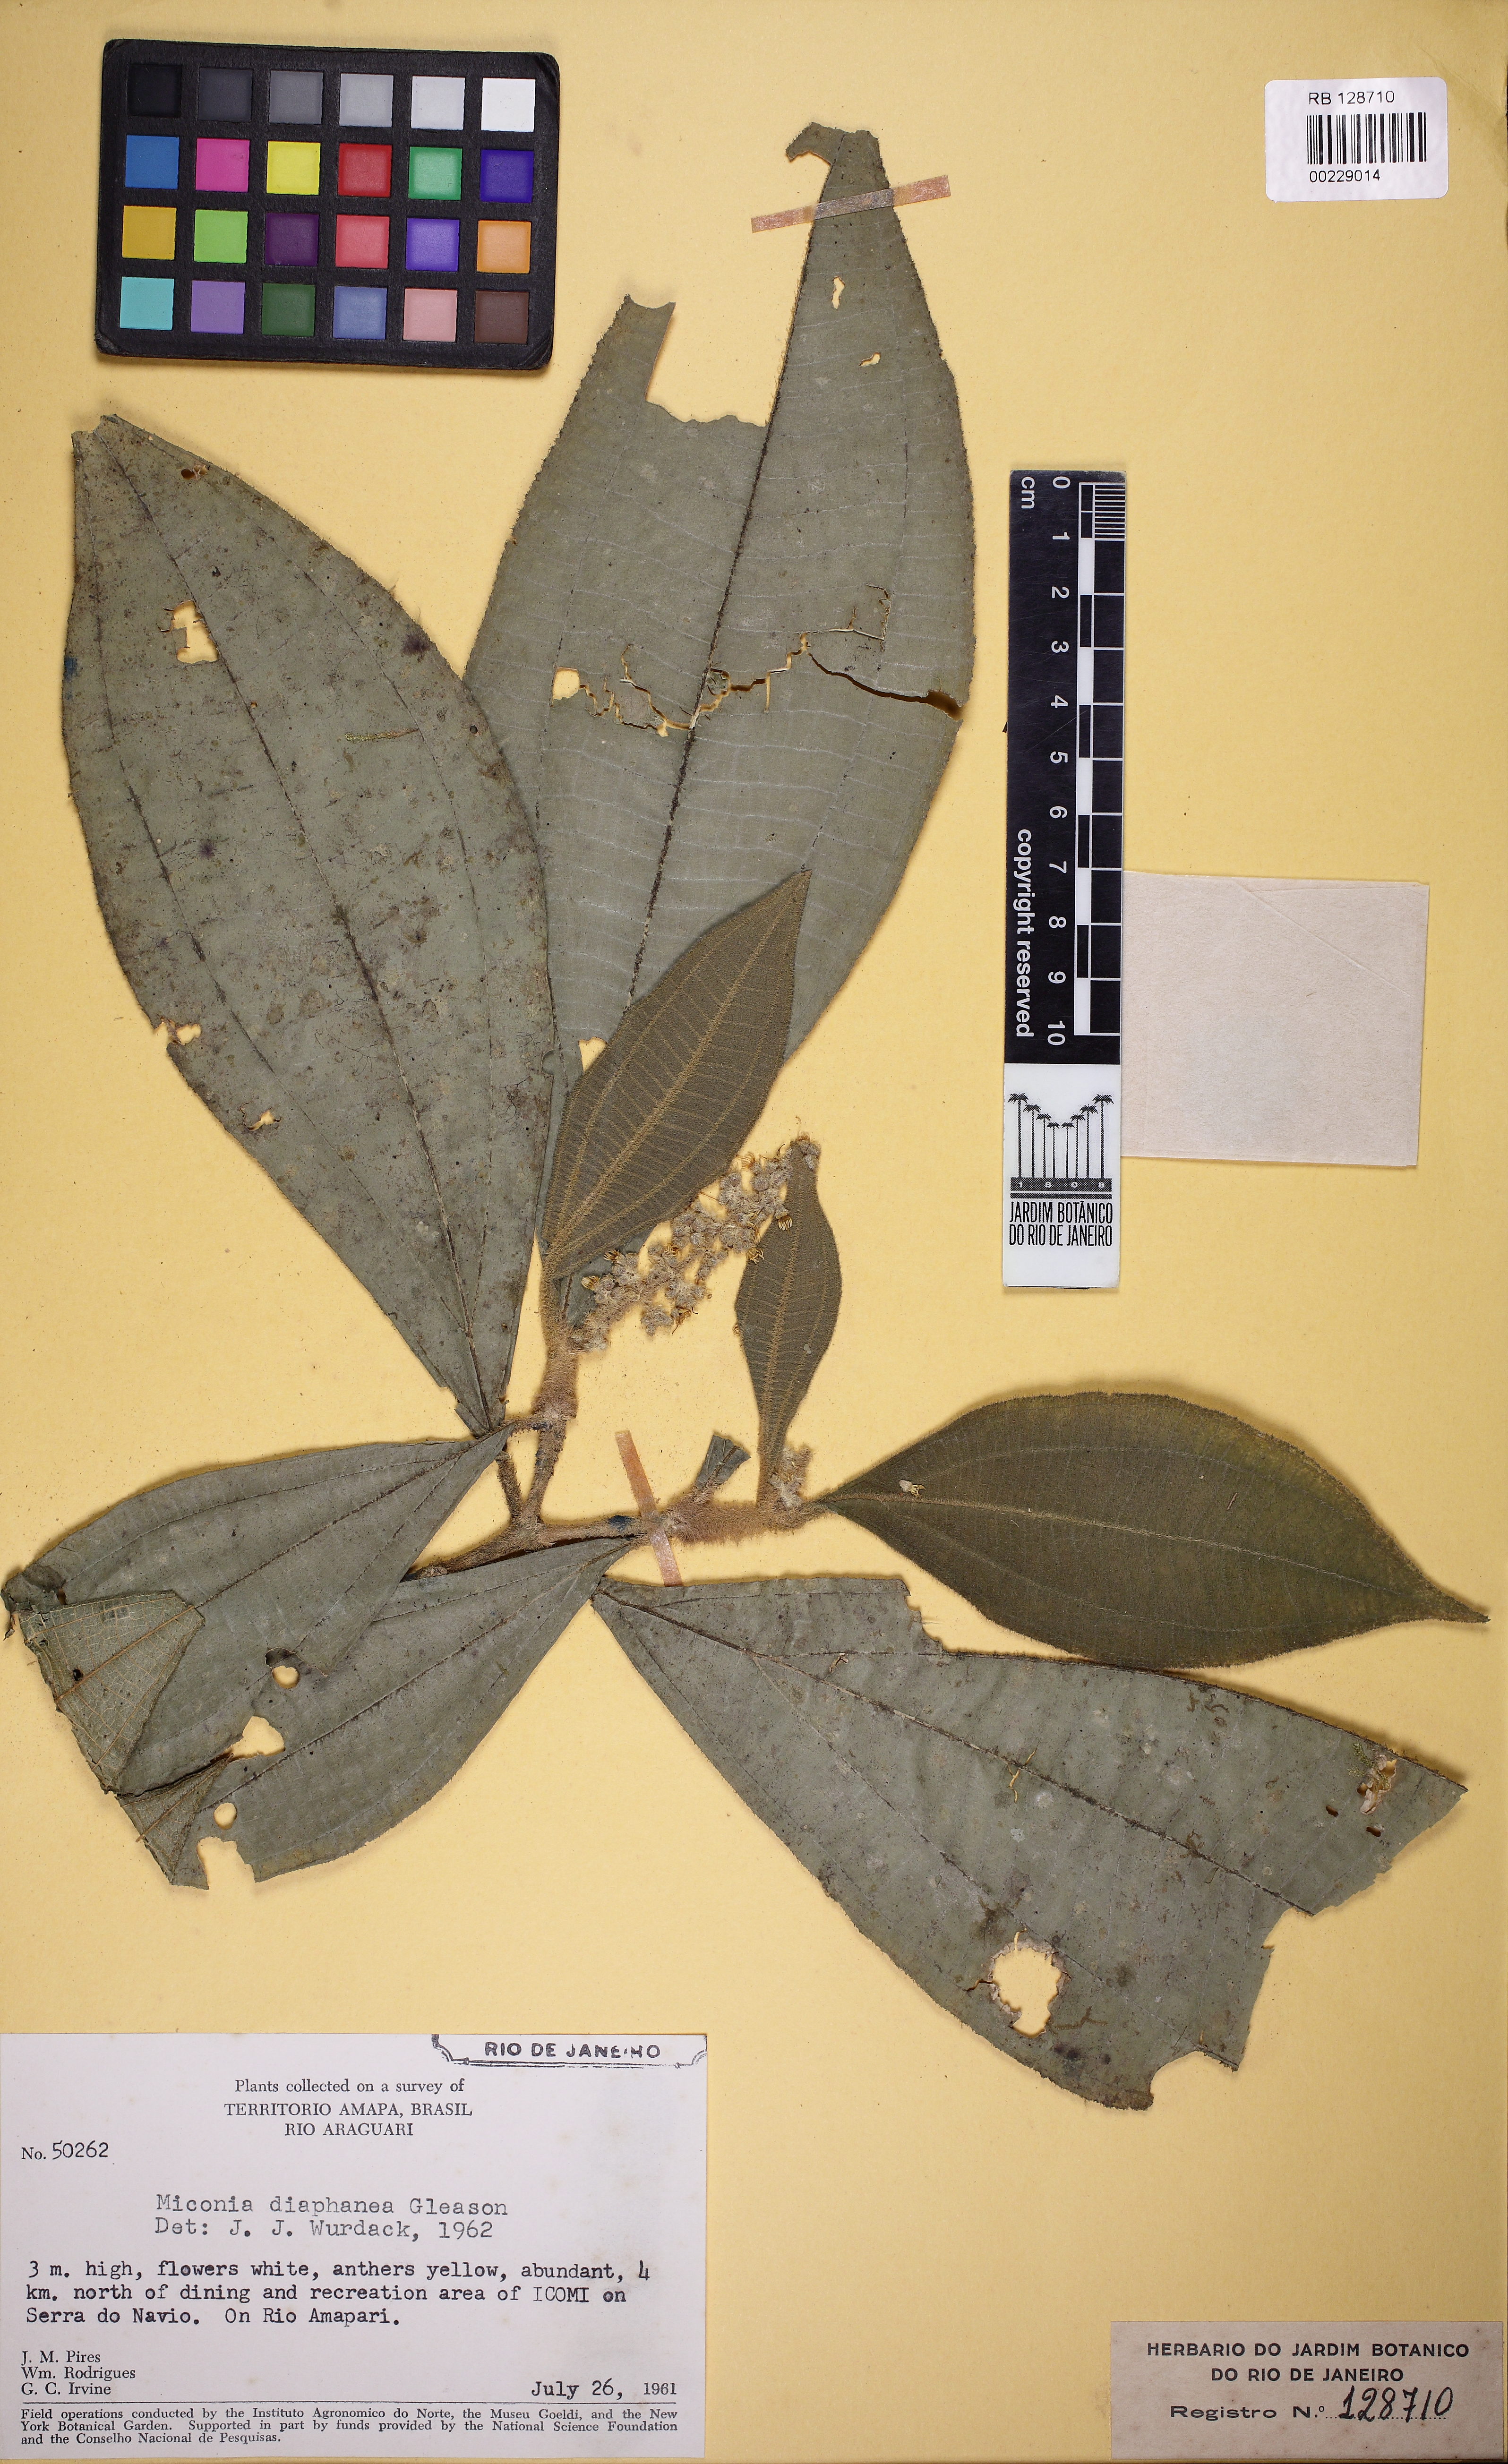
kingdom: Plantae
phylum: Tracheophyta
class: Magnoliopsida
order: Myrtales
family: Melastomataceae
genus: Miconia
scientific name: Miconia diaphanea
